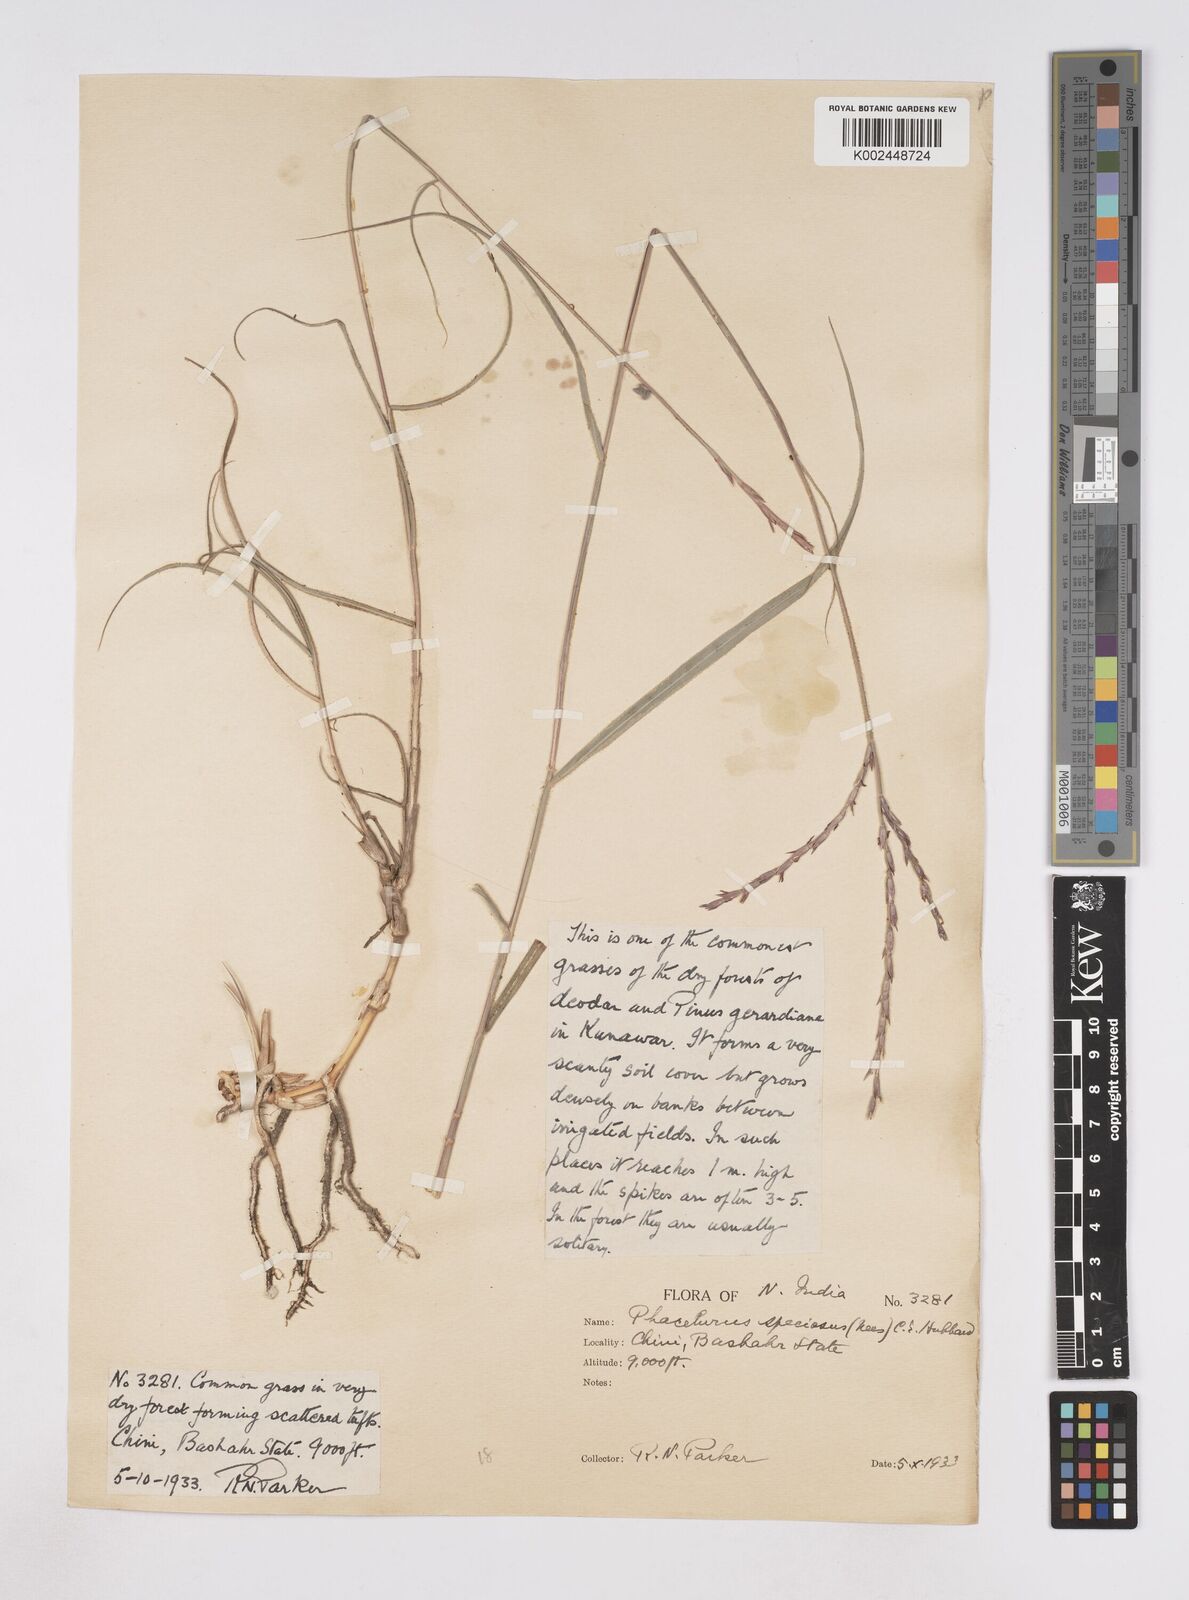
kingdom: Plantae
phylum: Tracheophyta
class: Liliopsida
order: Poales
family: Poaceae
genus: Phacelurus
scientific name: Phacelurus speciosus
